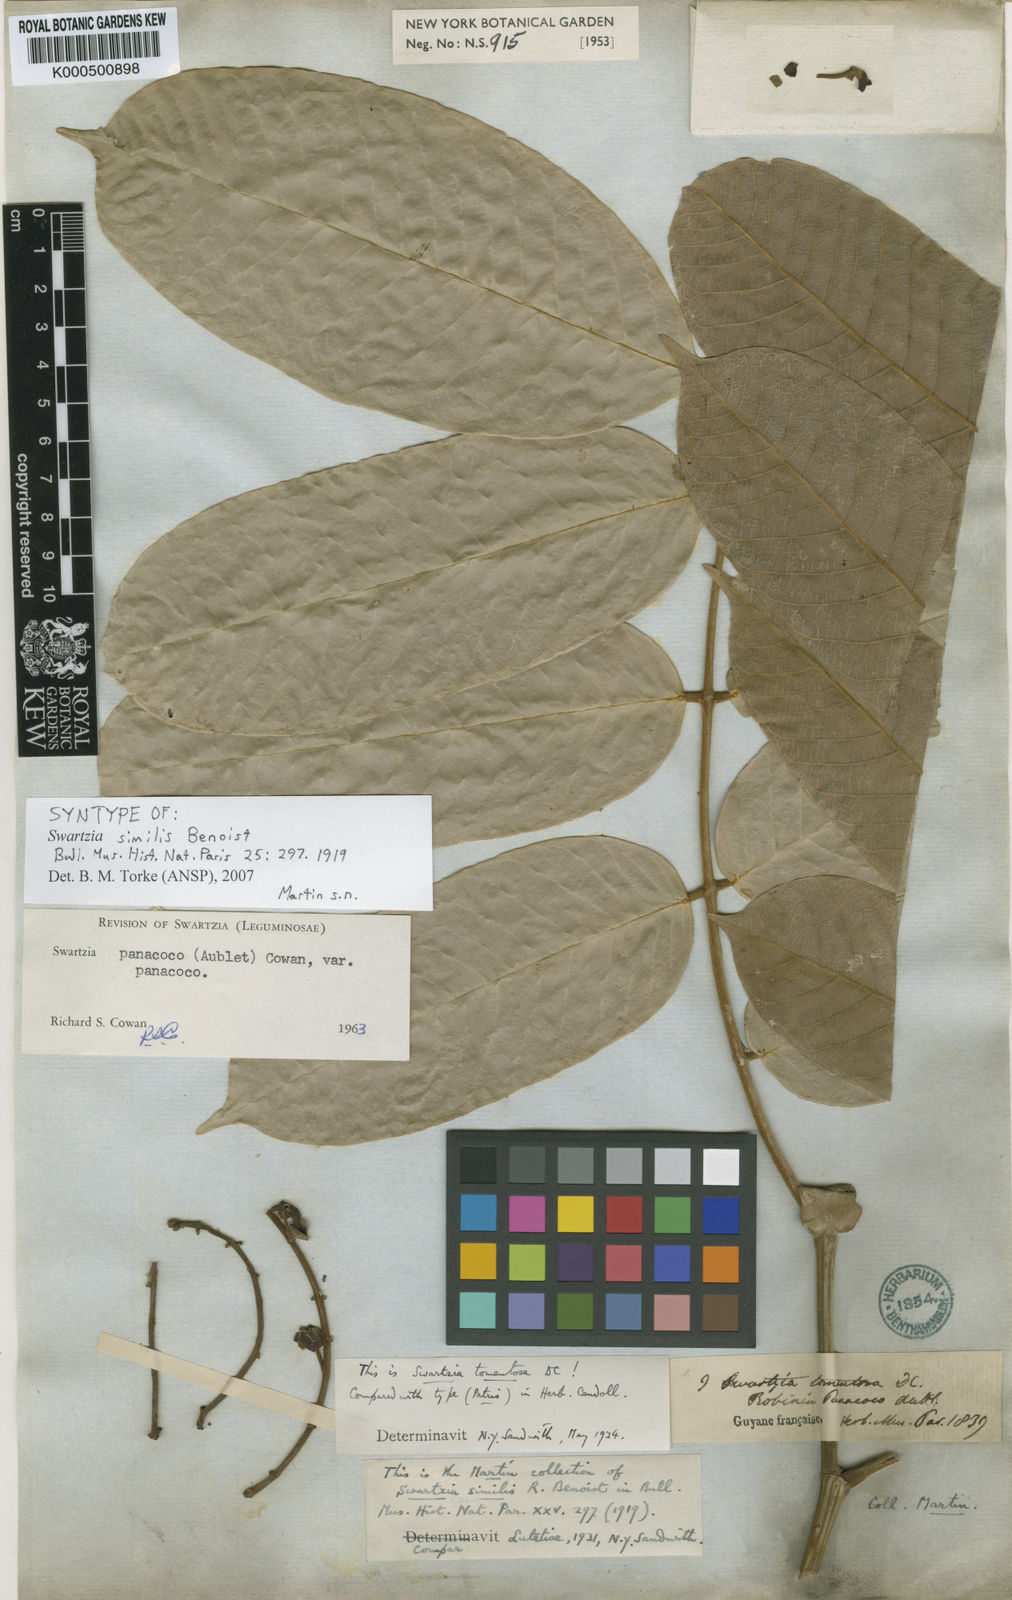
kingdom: Plantae
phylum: Tracheophyta
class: Magnoliopsida
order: Fabales
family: Fabaceae
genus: Swartzia
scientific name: Swartzia panacoco
